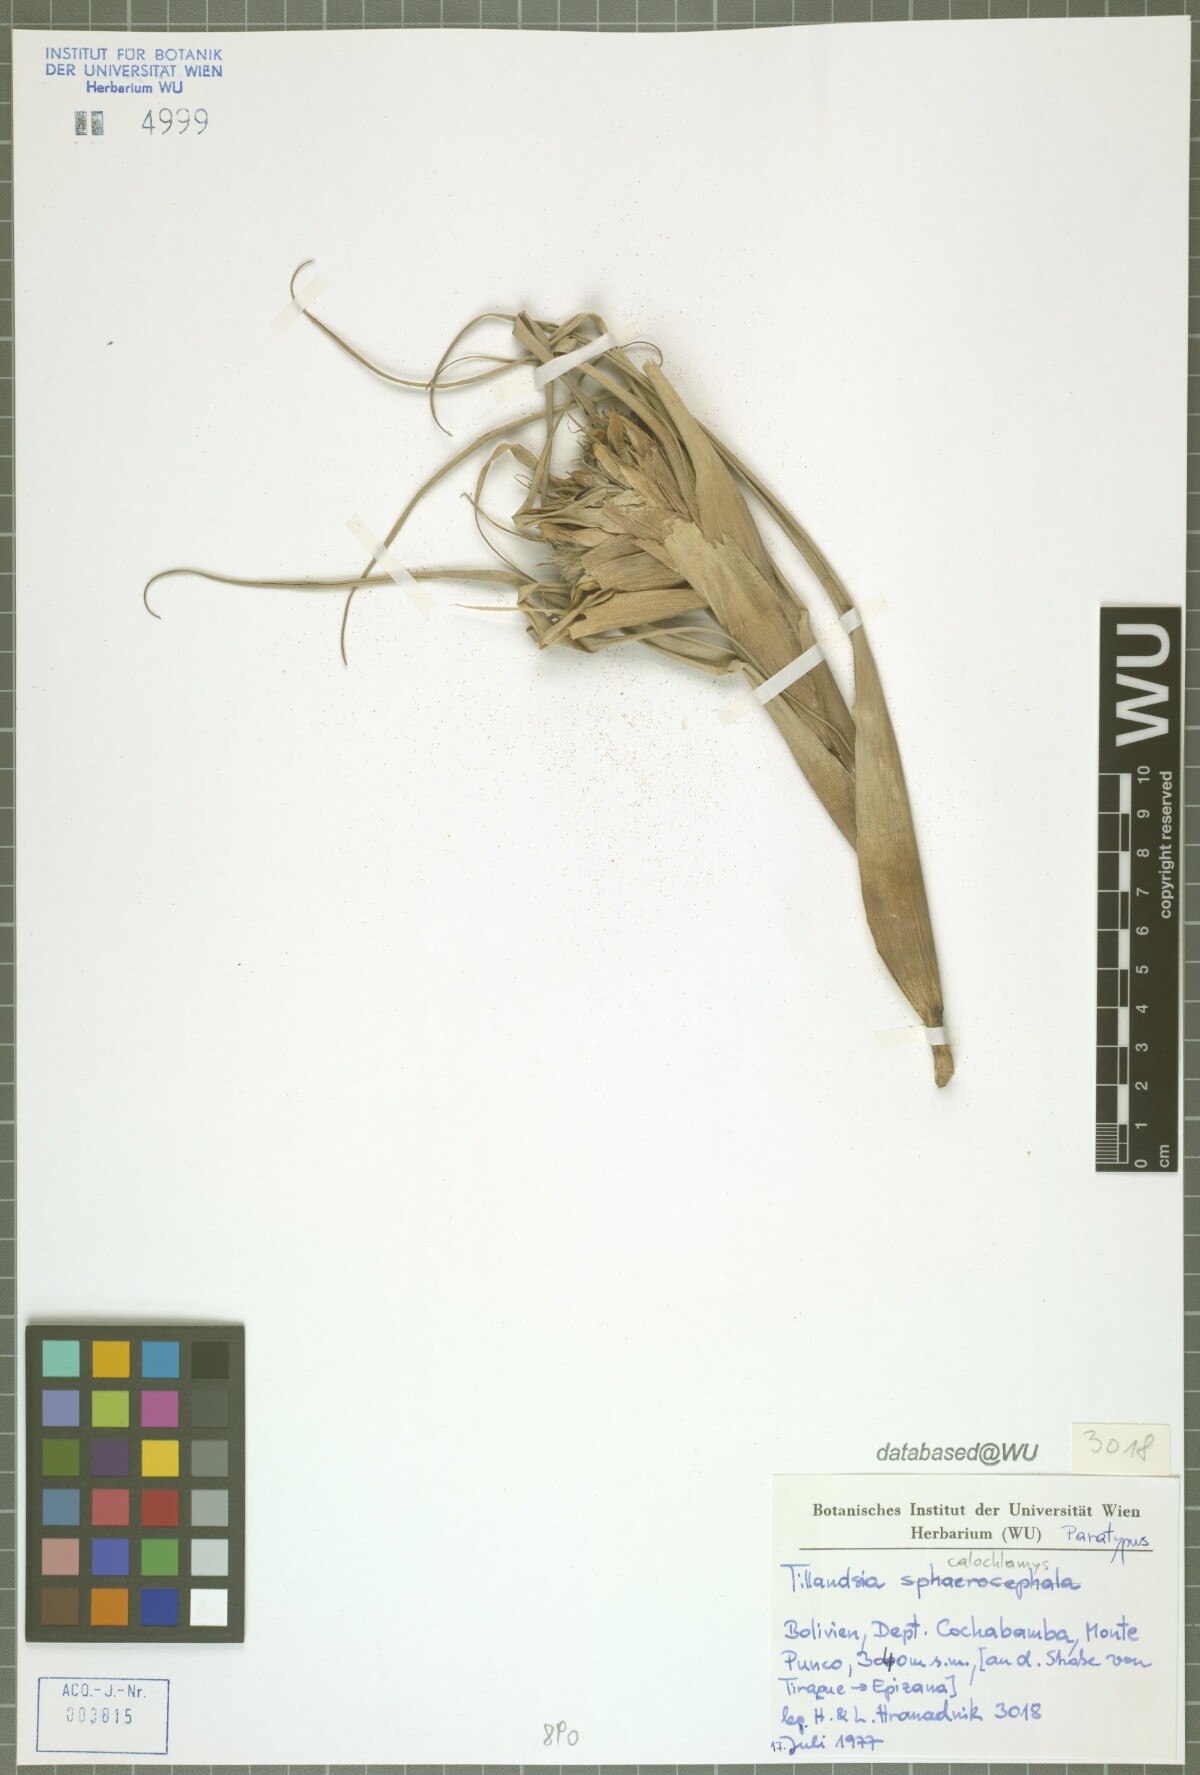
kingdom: Plantae
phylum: Tracheophyta
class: Liliopsida
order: Poales
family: Bromeliaceae
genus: Tillandsia
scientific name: Tillandsia calochlamys
